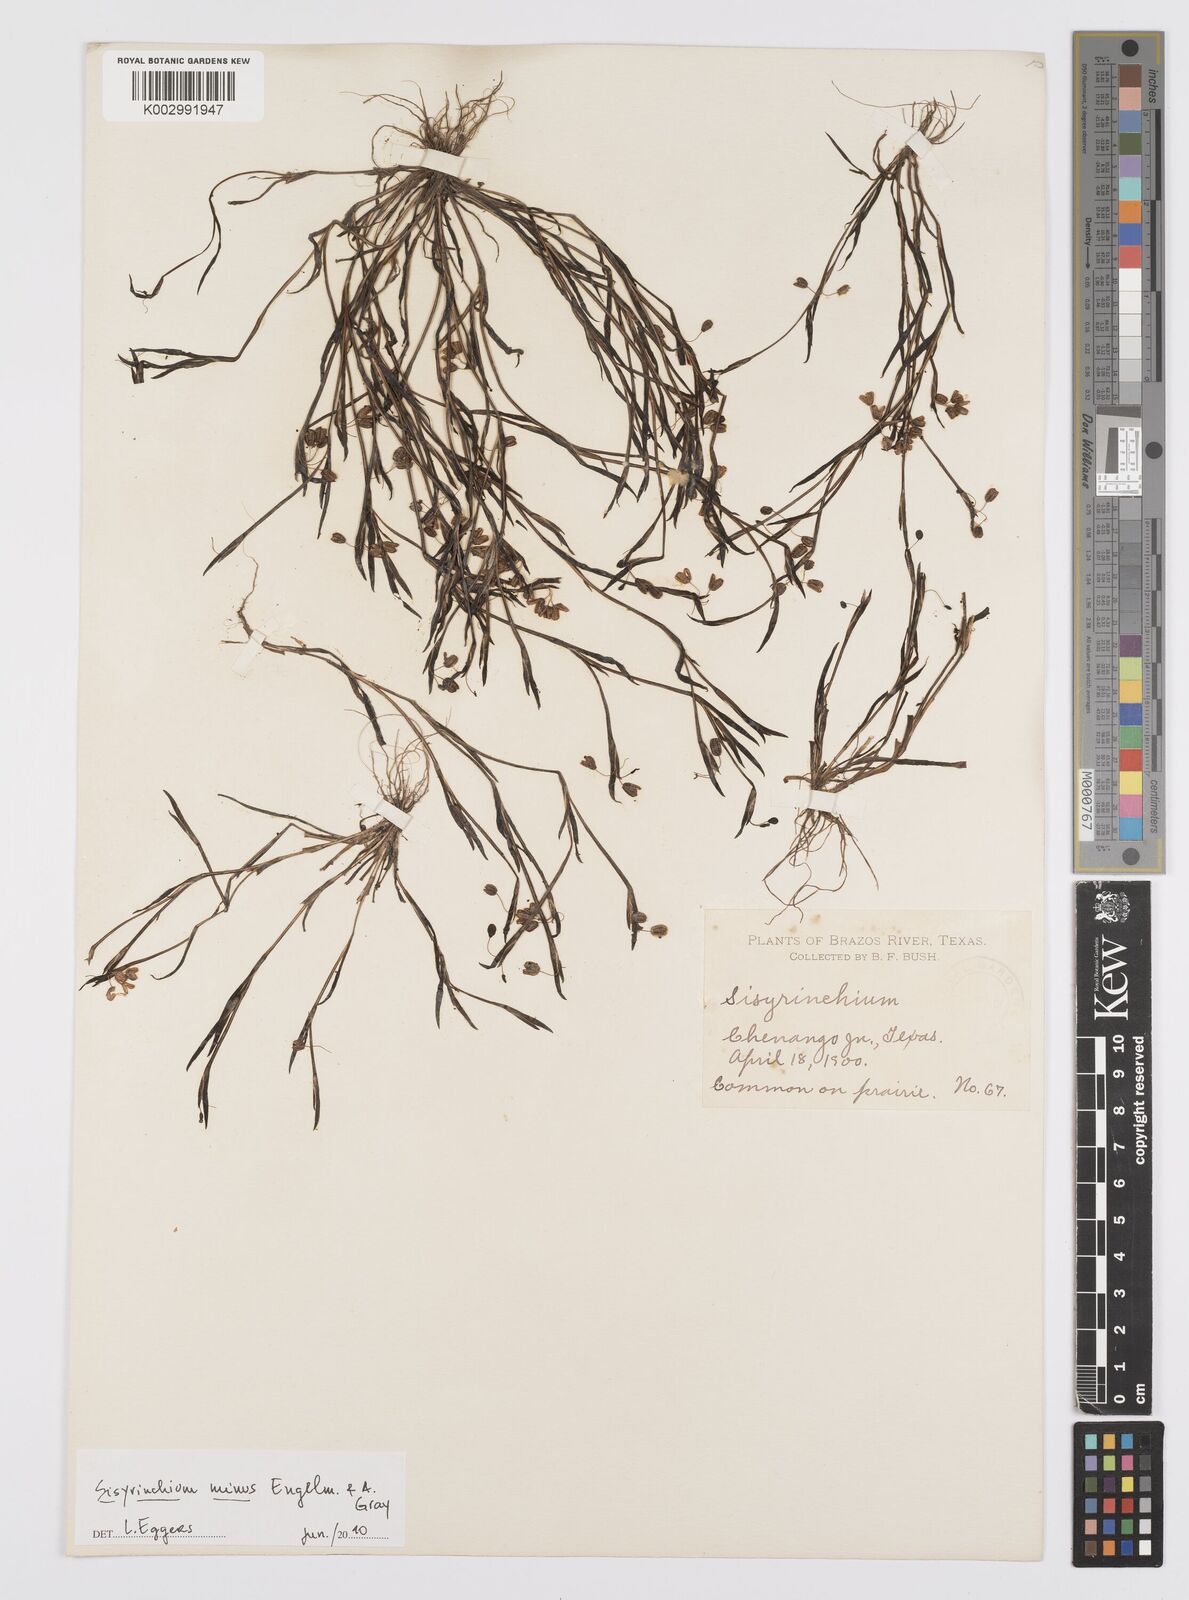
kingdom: Plantae
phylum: Tracheophyta
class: Liliopsida
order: Asparagales
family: Iridaceae
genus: Sisyrinchium
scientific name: Sisyrinchium minus
